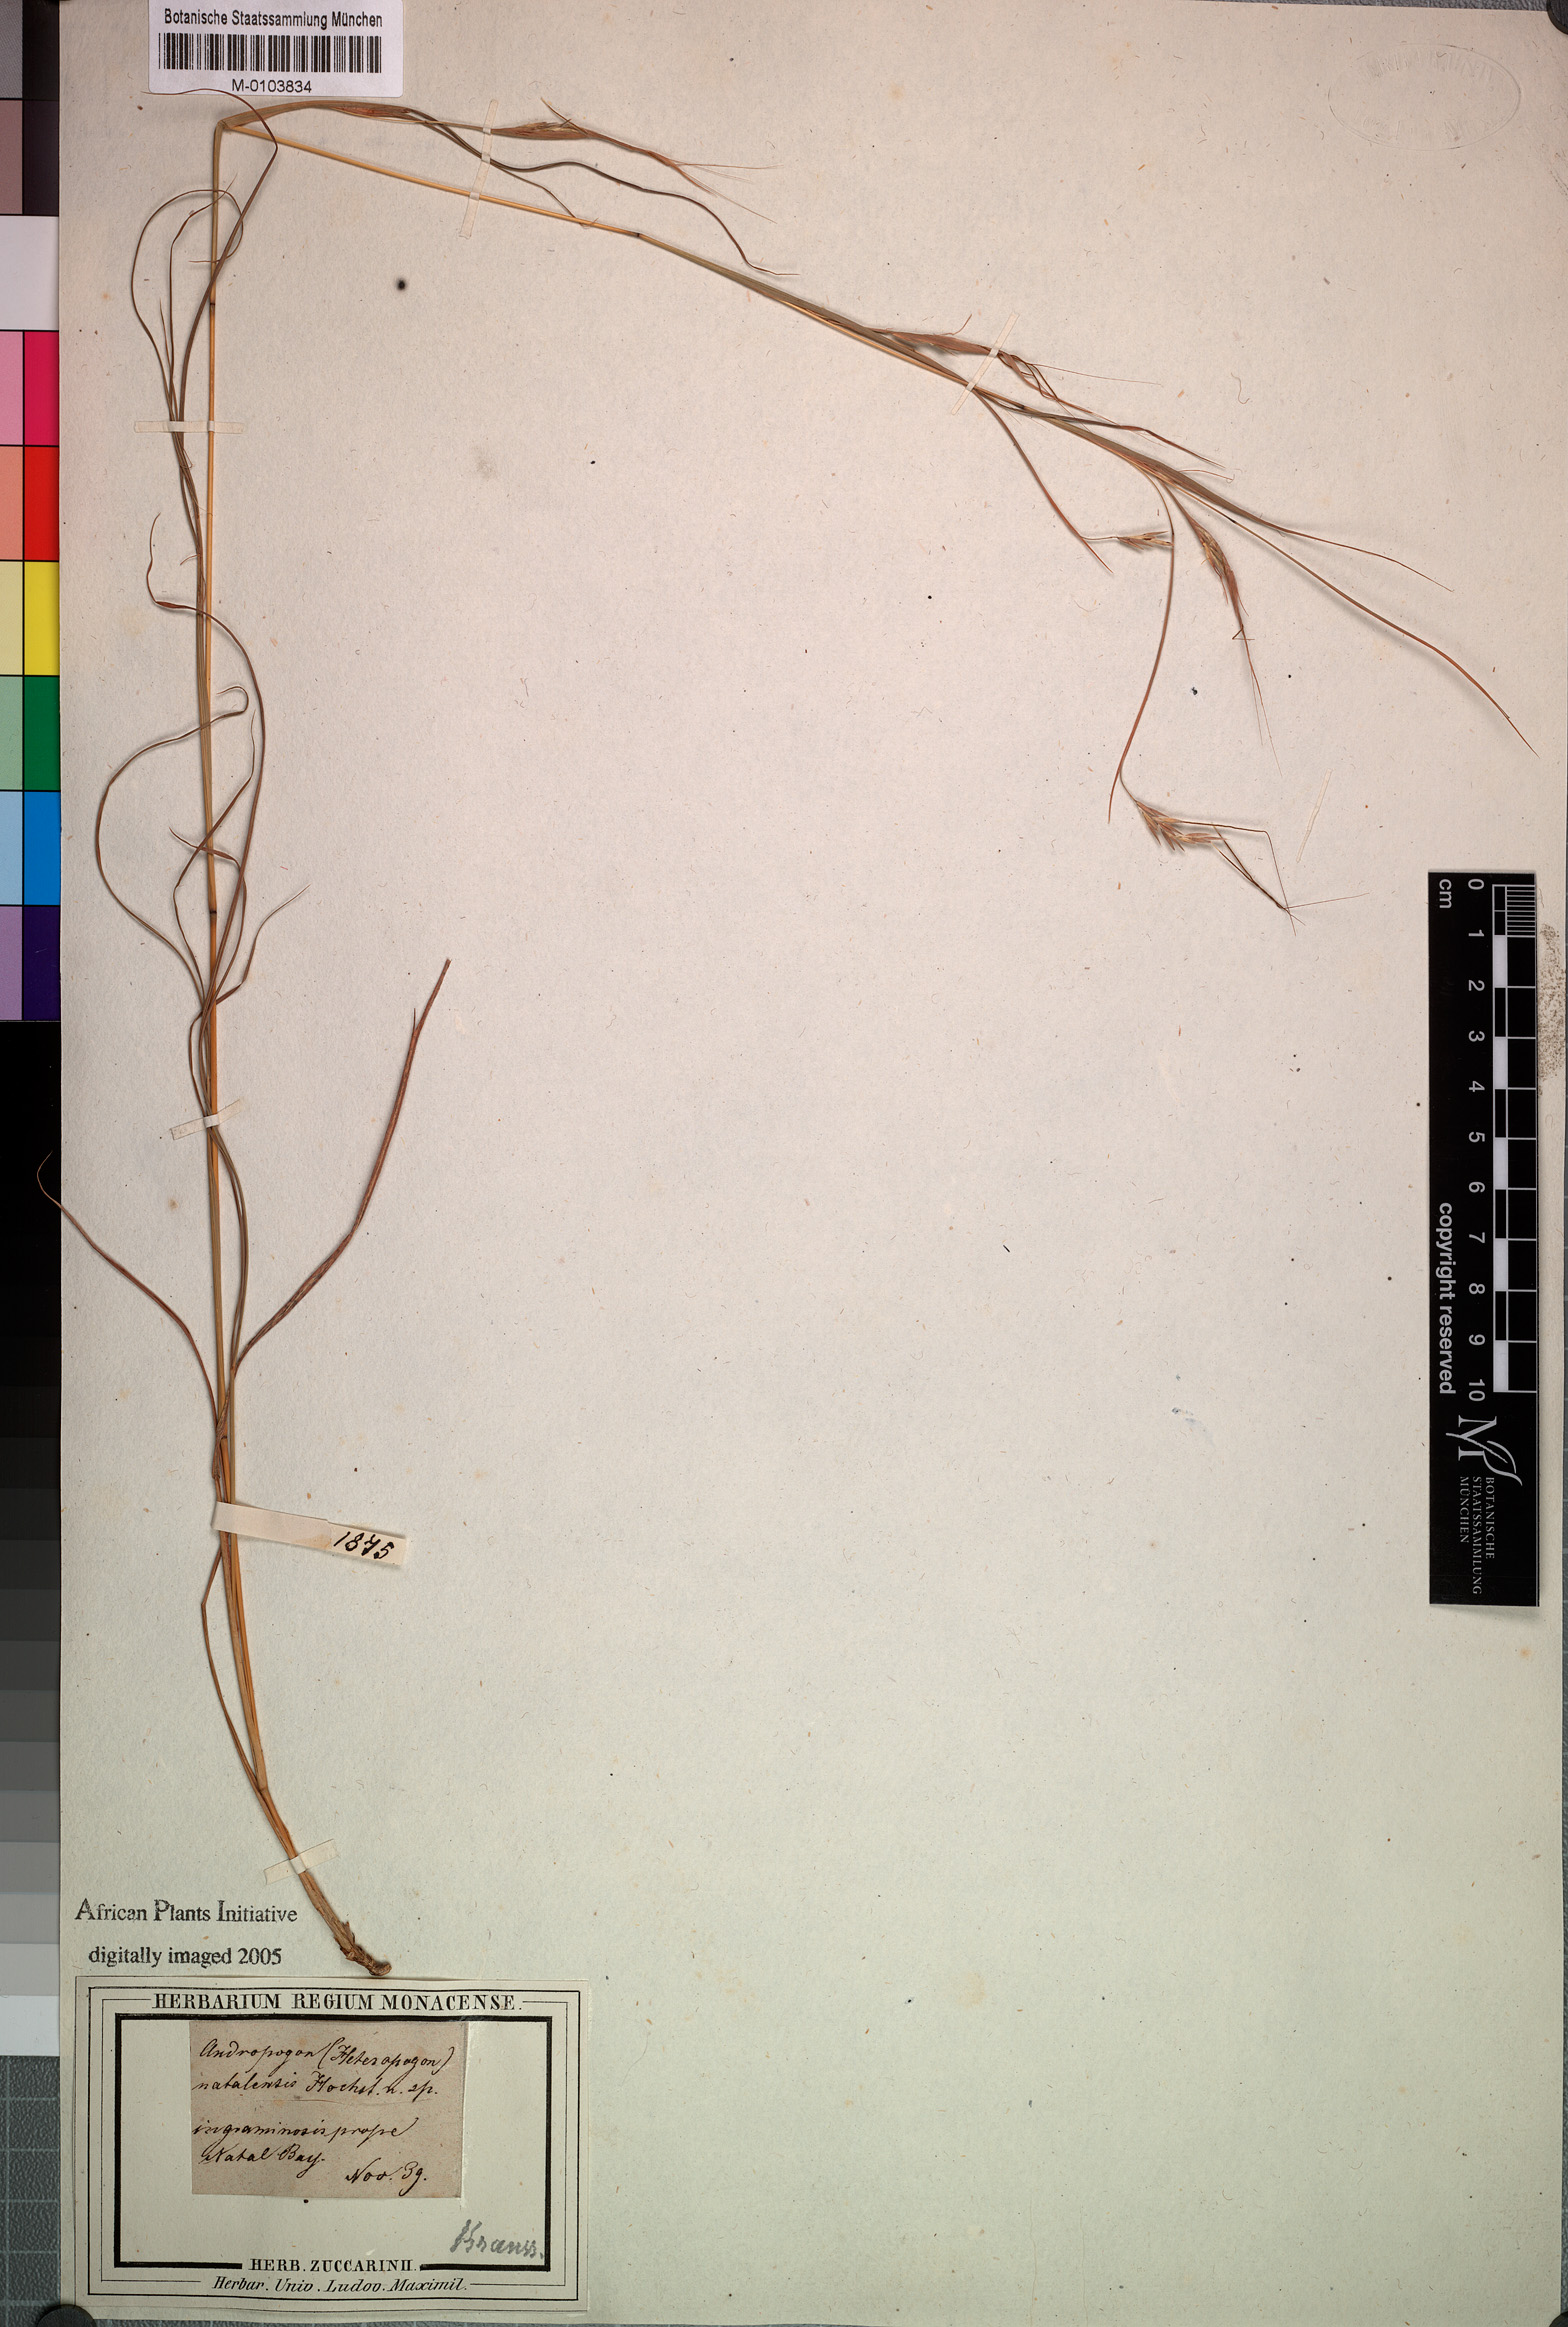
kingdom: Plantae
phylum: Tracheophyta
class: Liliopsida
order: Poales
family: Poaceae
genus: Hyparrhenia
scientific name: Hyparrhenia filipendula
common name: Tambookie grass
